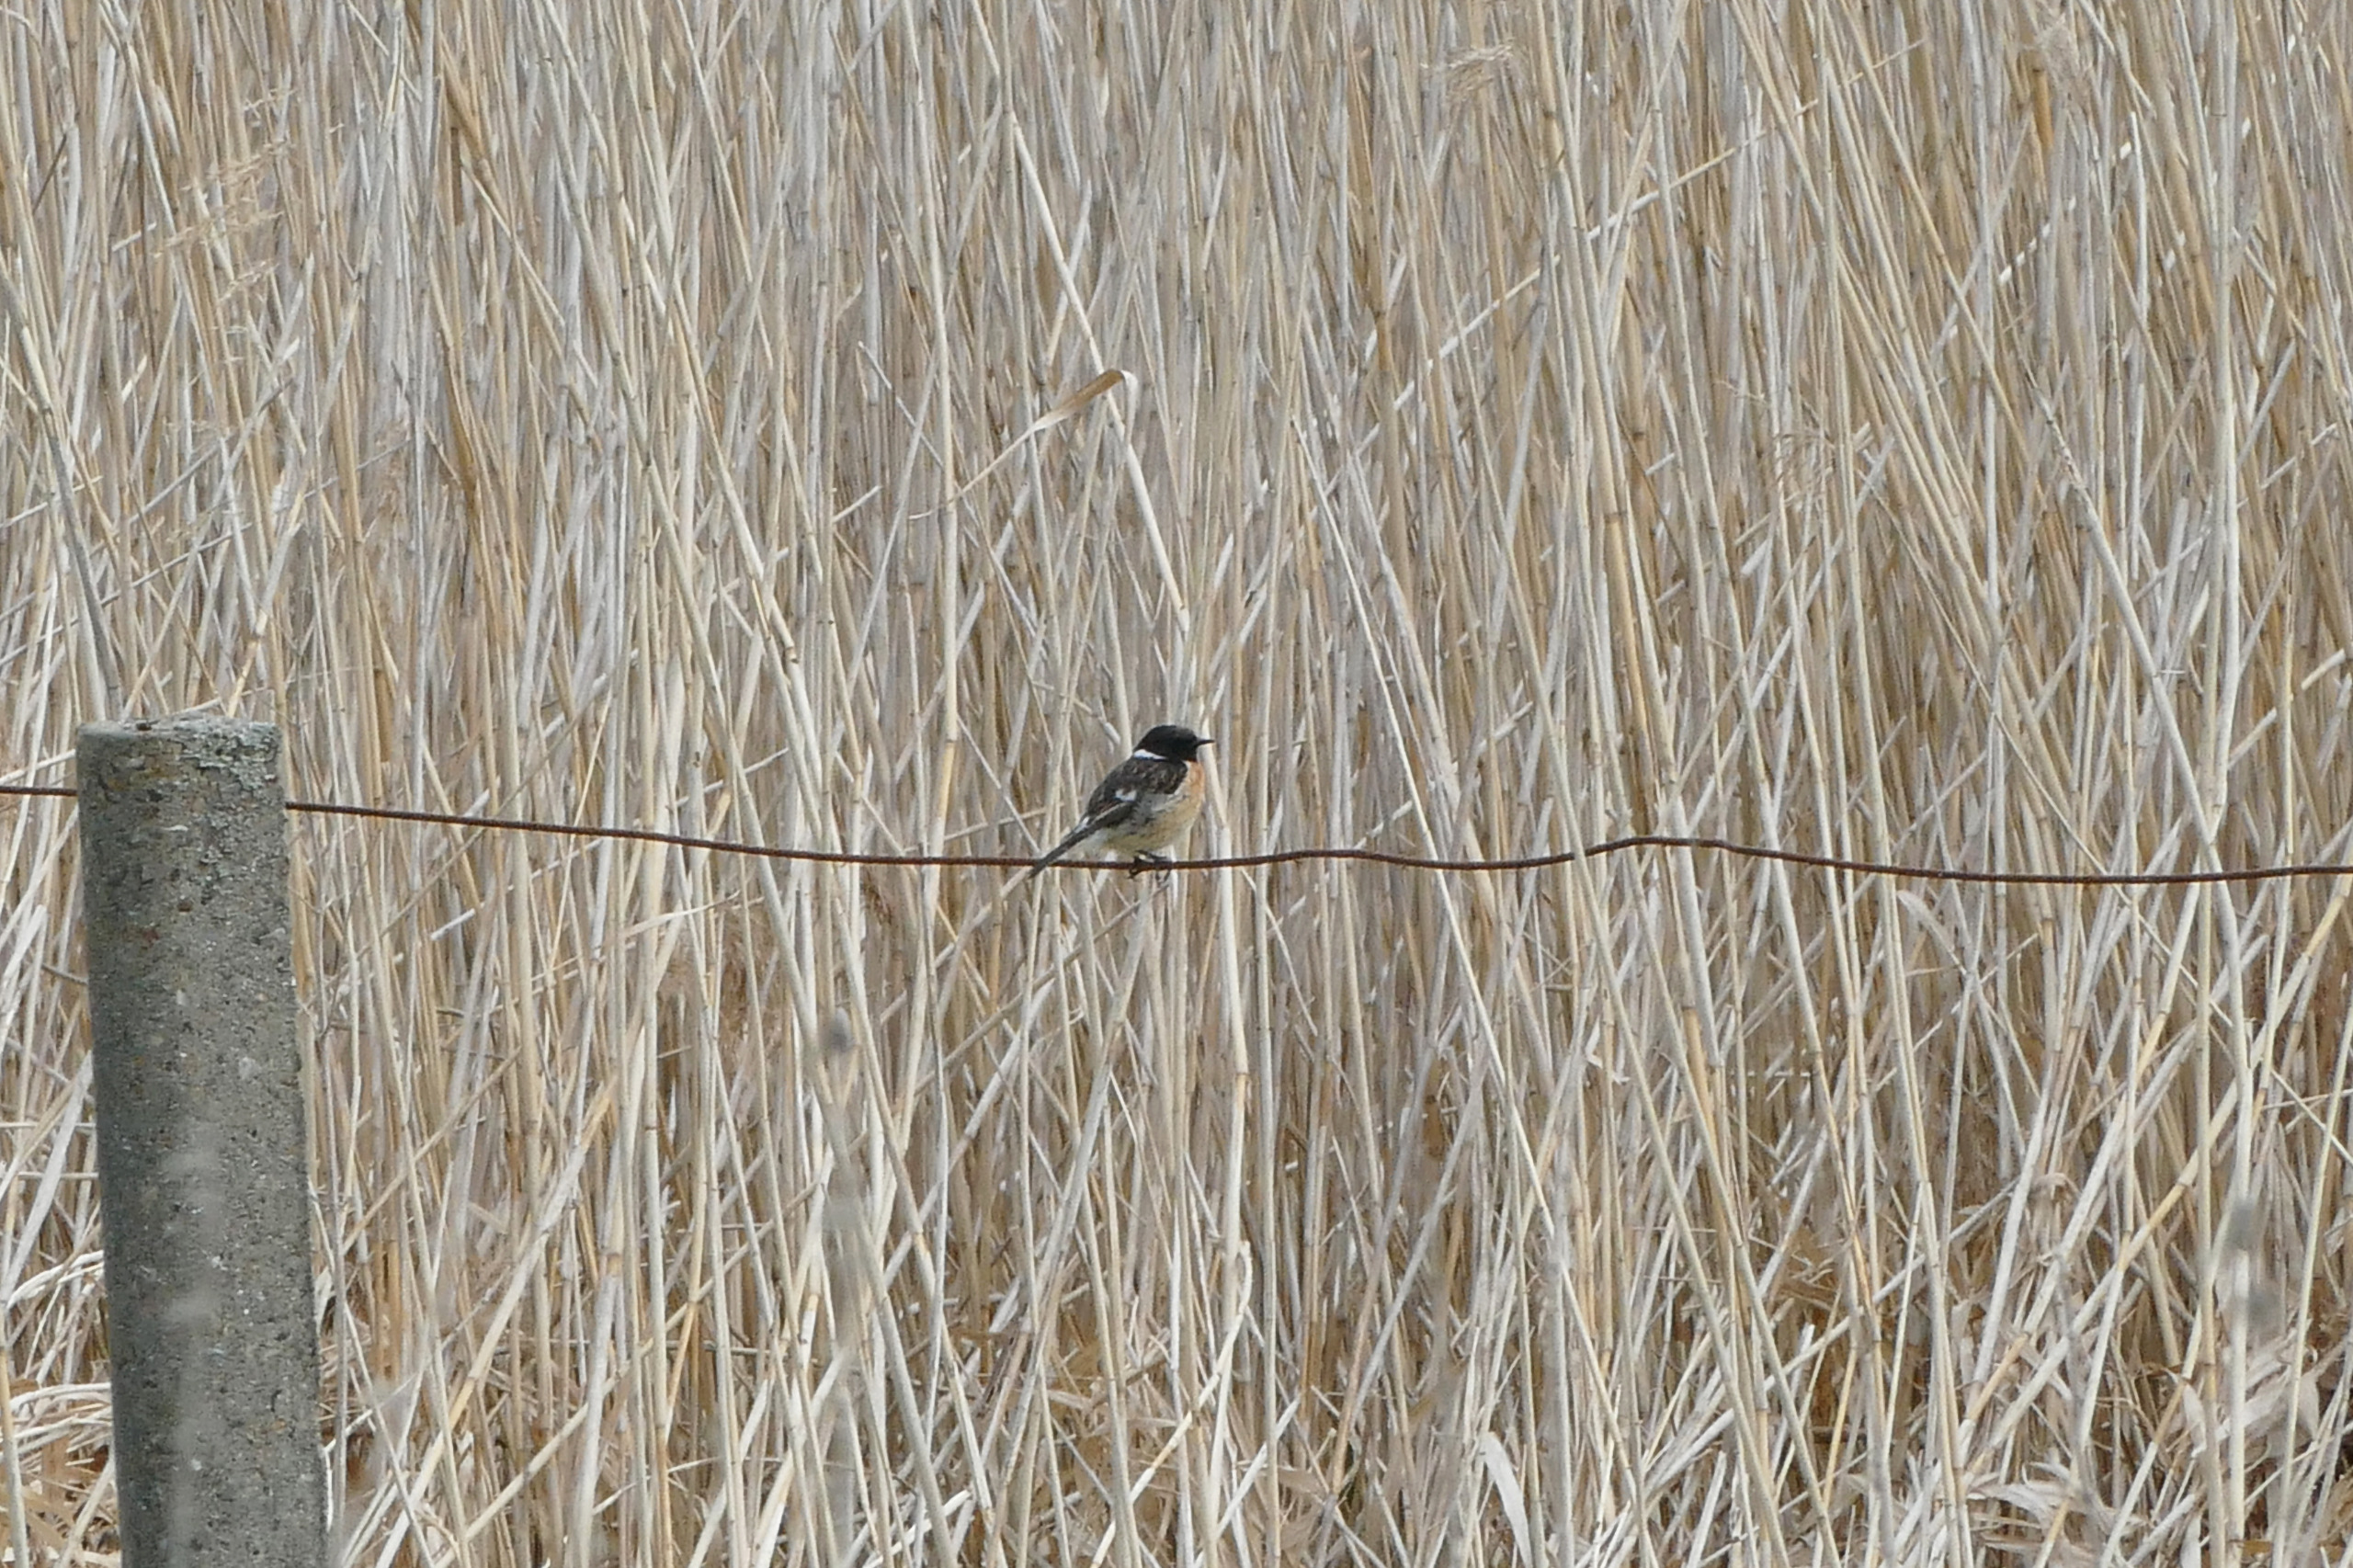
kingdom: Animalia
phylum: Chordata
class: Aves
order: Passeriformes
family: Muscicapidae
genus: Saxicola
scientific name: Saxicola rubicola
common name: Sortstrubet bynkefugl
